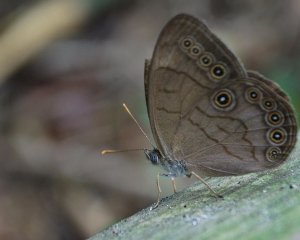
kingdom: Animalia
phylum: Arthropoda
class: Insecta
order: Lepidoptera
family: Nymphalidae
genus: Lethe
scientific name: Lethe eurydice
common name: Appalachian Eyed Brown
